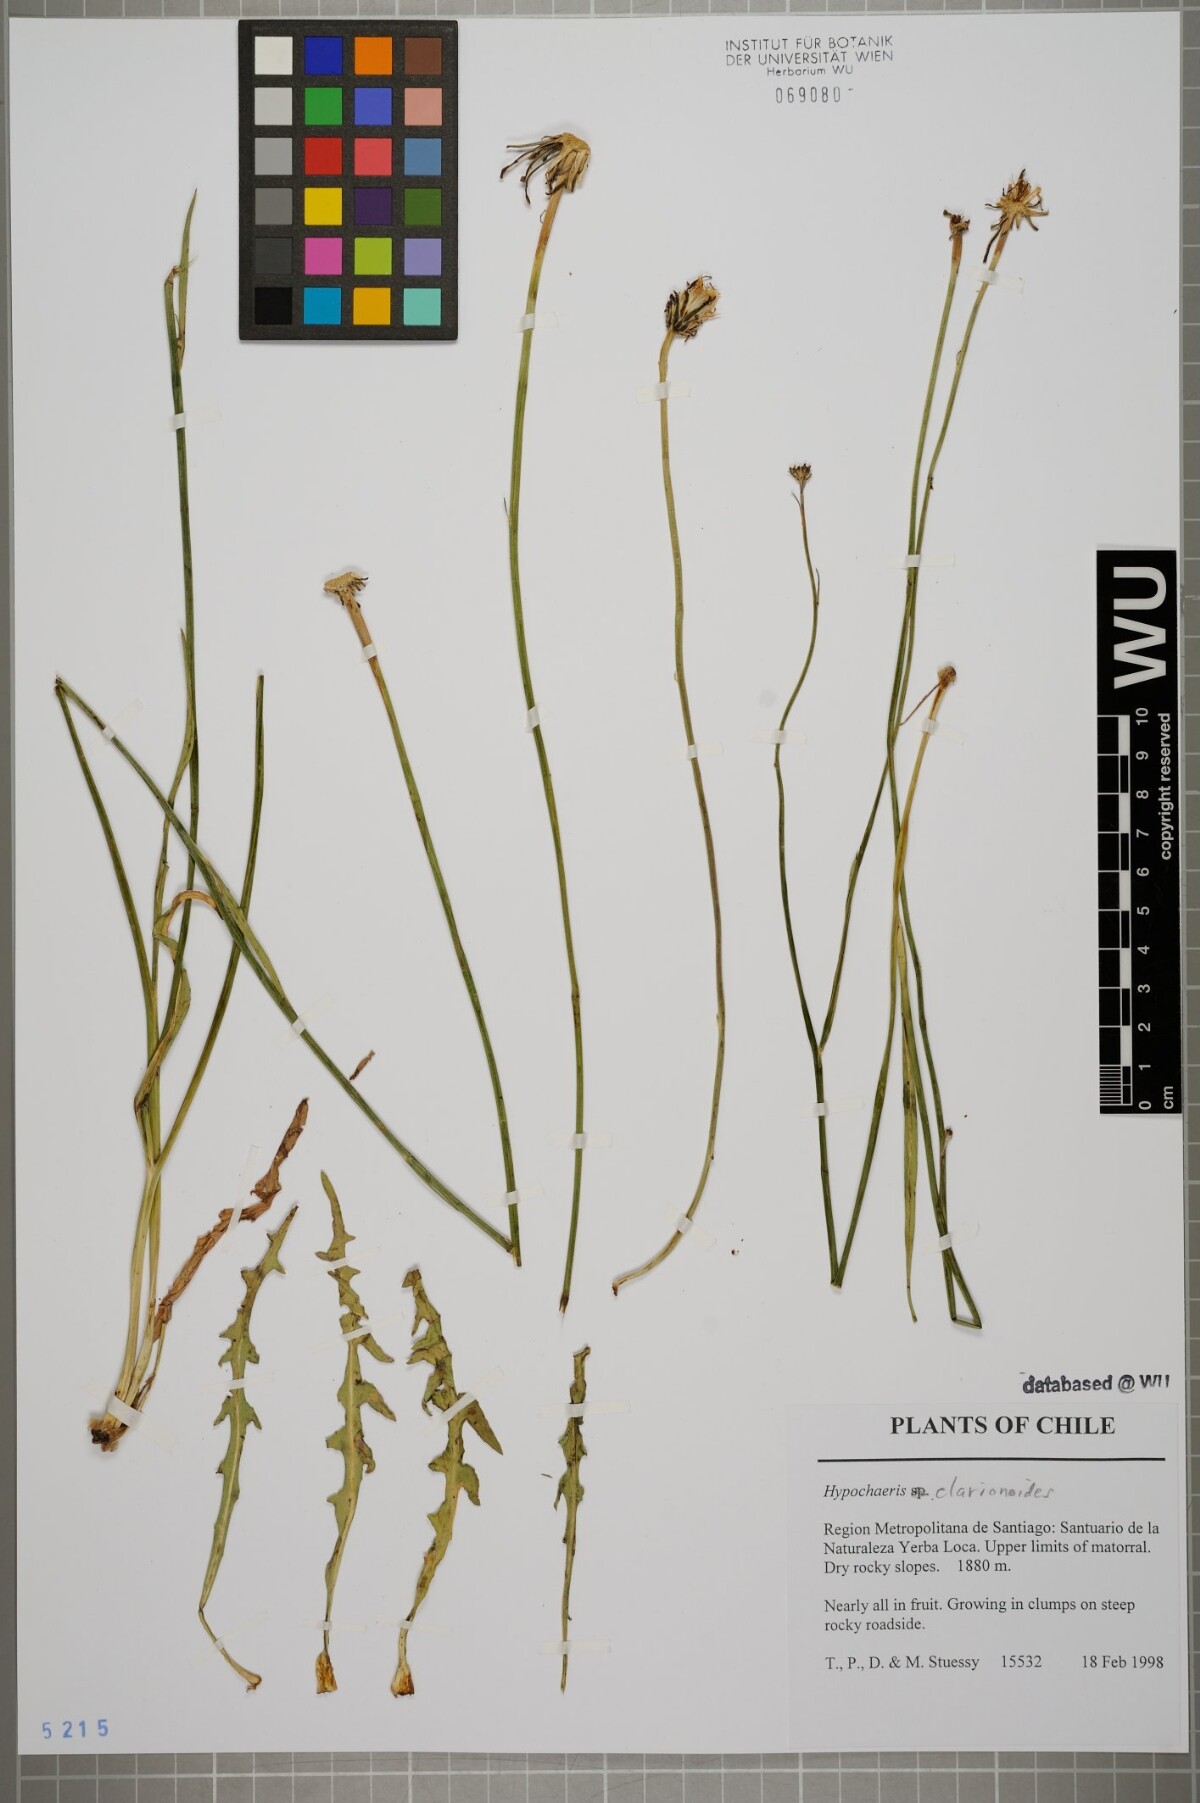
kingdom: Plantae
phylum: Tracheophyta
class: Magnoliopsida
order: Asterales
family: Asteraceae
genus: Hypochaeris
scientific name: Hypochaeris clarionoides
